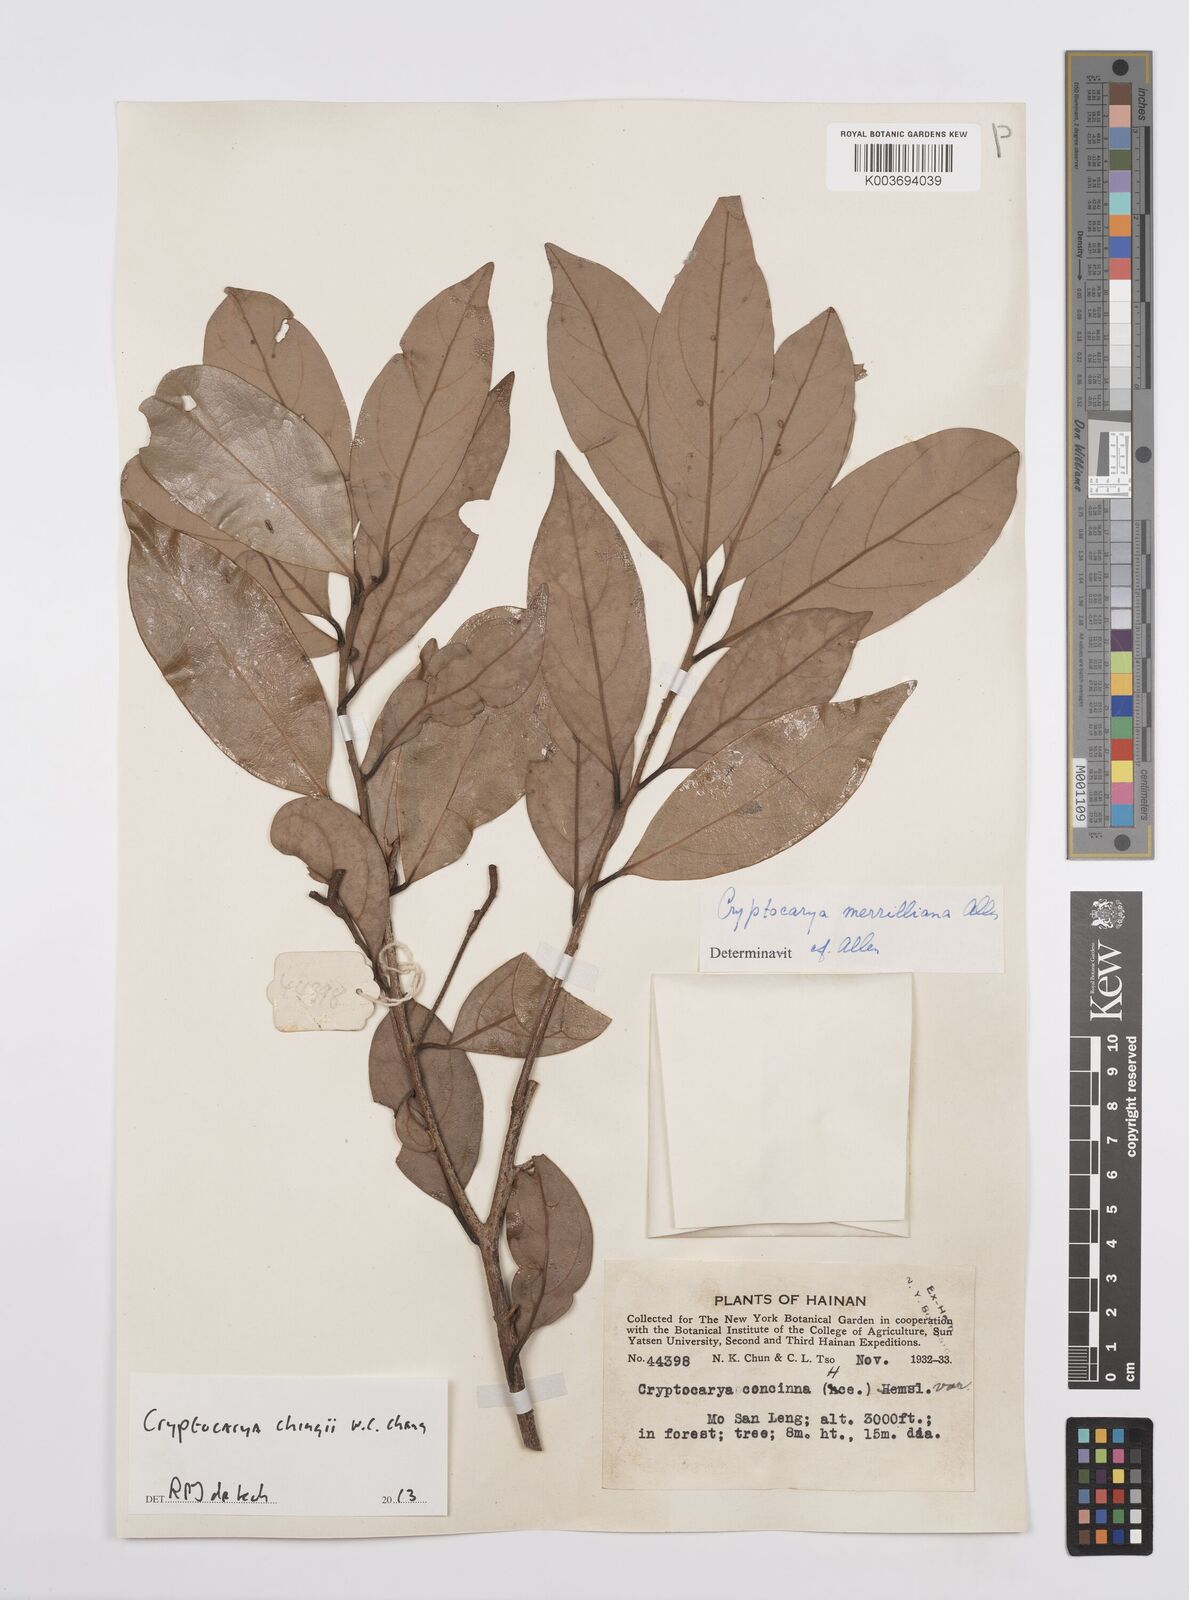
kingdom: Plantae
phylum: Tracheophyta
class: Magnoliopsida
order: Laurales
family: Lauraceae
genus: Cryptocarya
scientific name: Cryptocarya chingii
